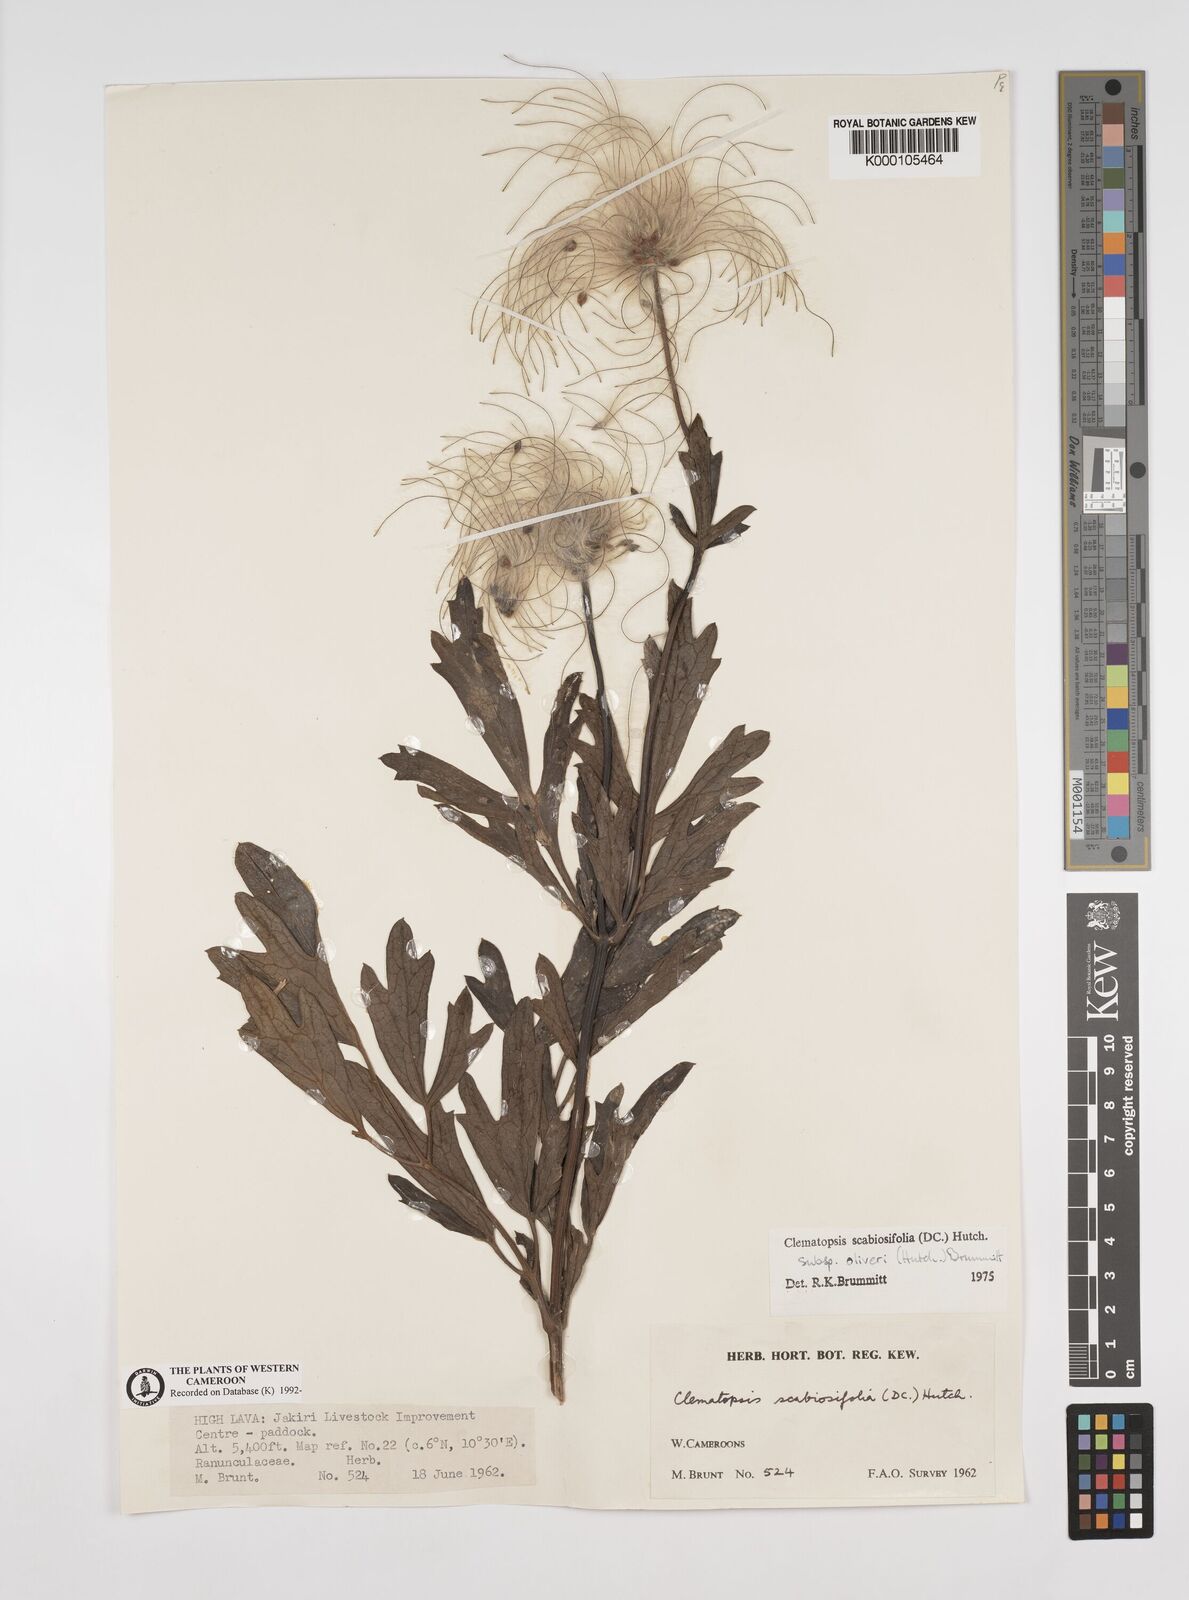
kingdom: Plantae
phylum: Tracheophyta
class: Magnoliopsida
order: Ranunculales
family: Ranunculaceae
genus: Clematis
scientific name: Clematis villosa
